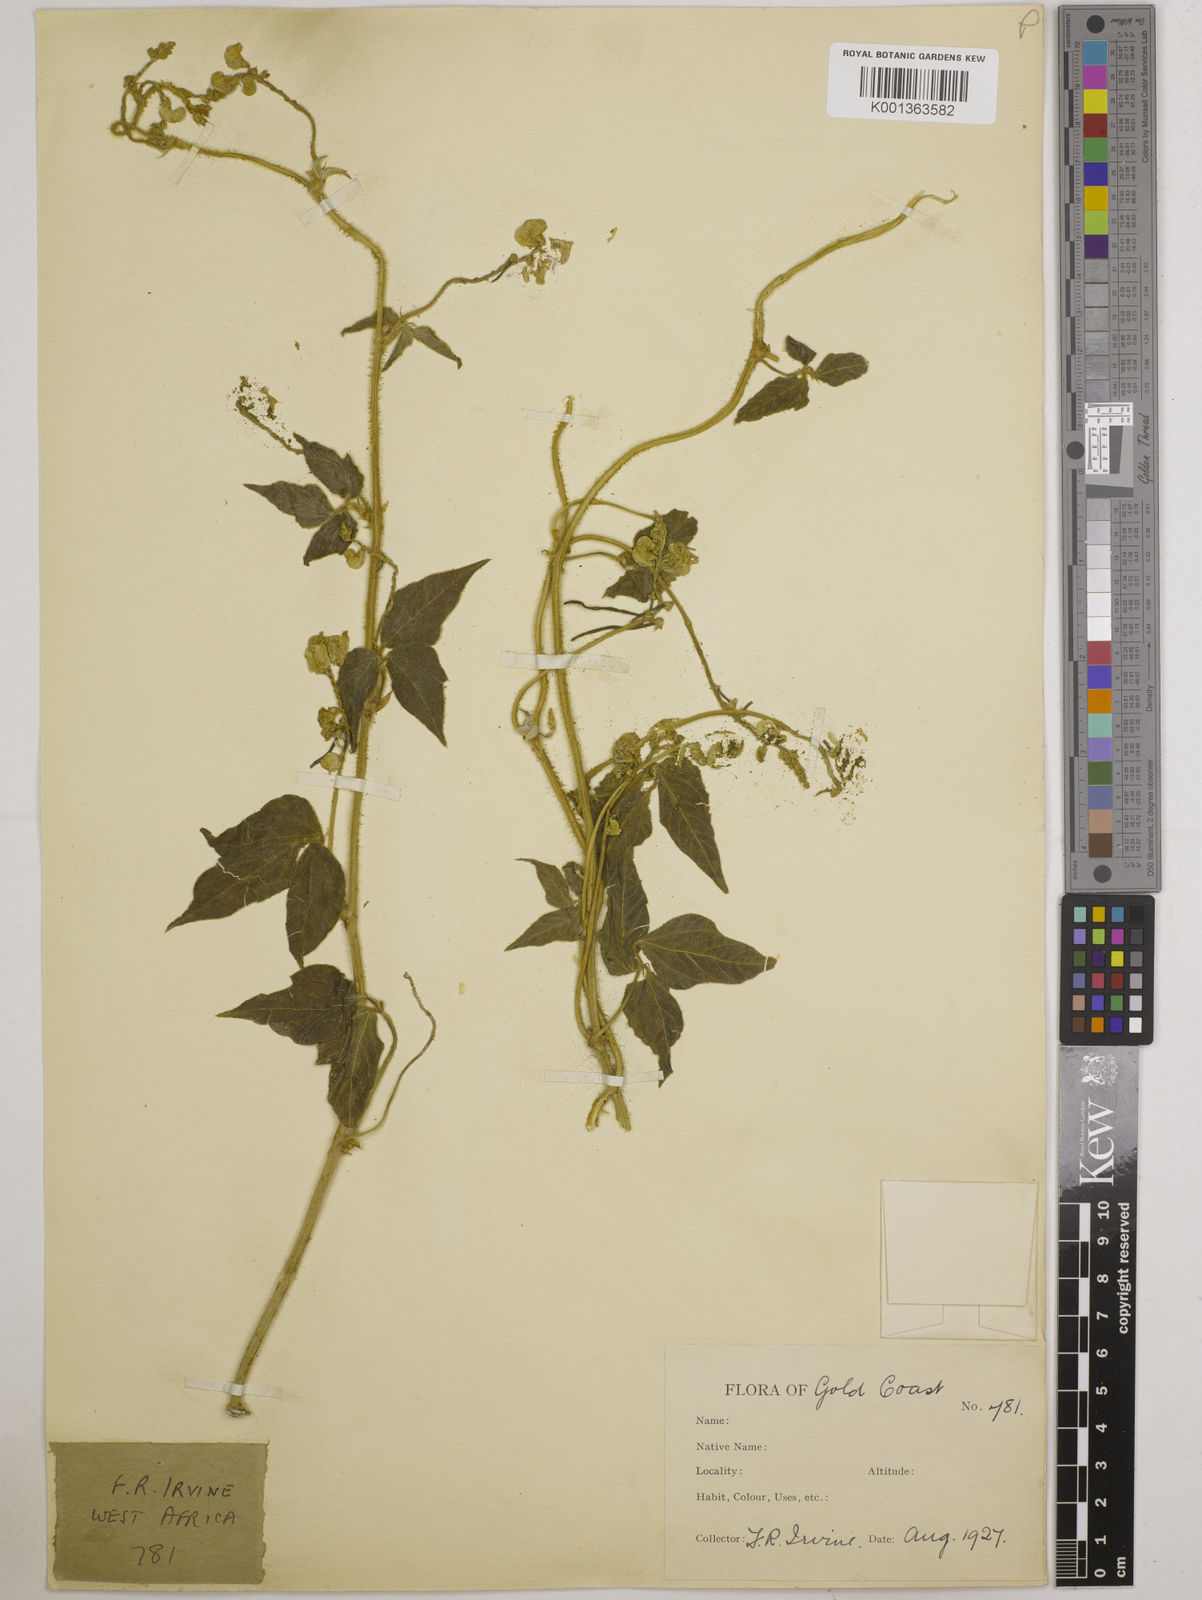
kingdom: Plantae
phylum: Tracheophyta
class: Magnoliopsida
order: Fabales
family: Fabaceae
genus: Vigna
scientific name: Vigna umbellata
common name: Oriental-bean
